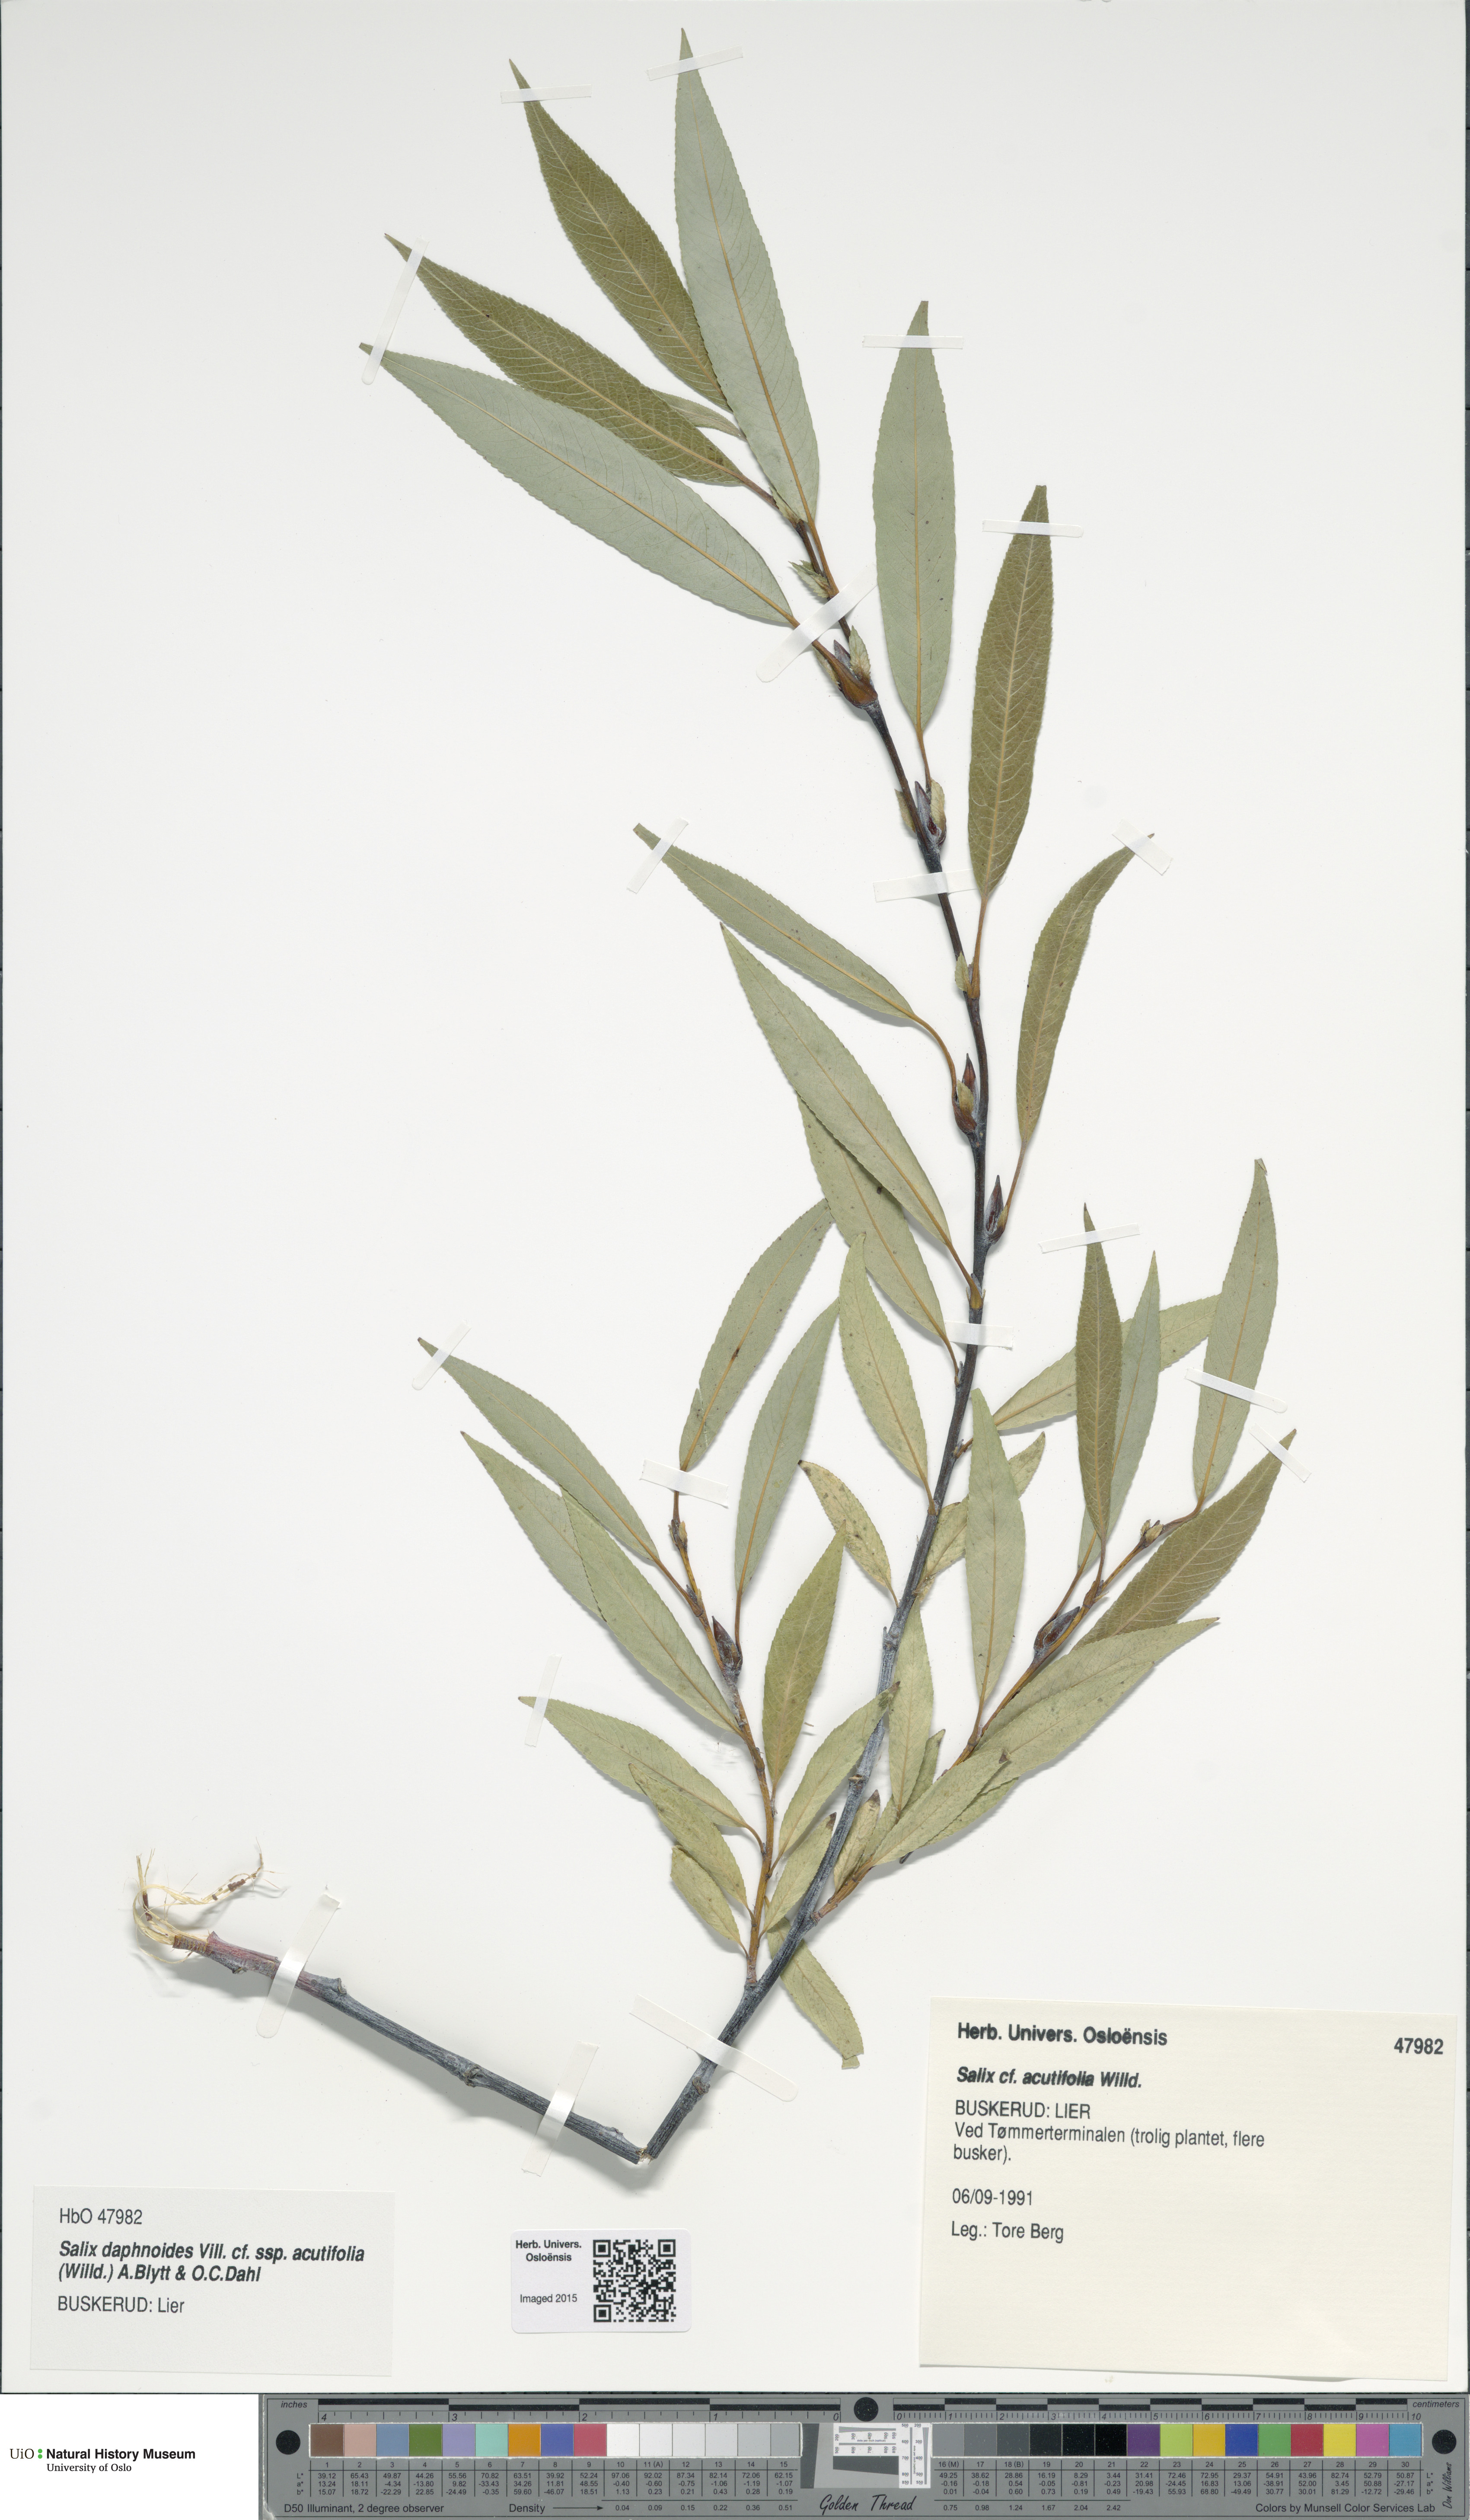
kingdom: Plantae
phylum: Tracheophyta
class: Magnoliopsida
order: Malpighiales
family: Salicaceae
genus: Salix
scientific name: Salix daphnoides
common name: European violet-willow
